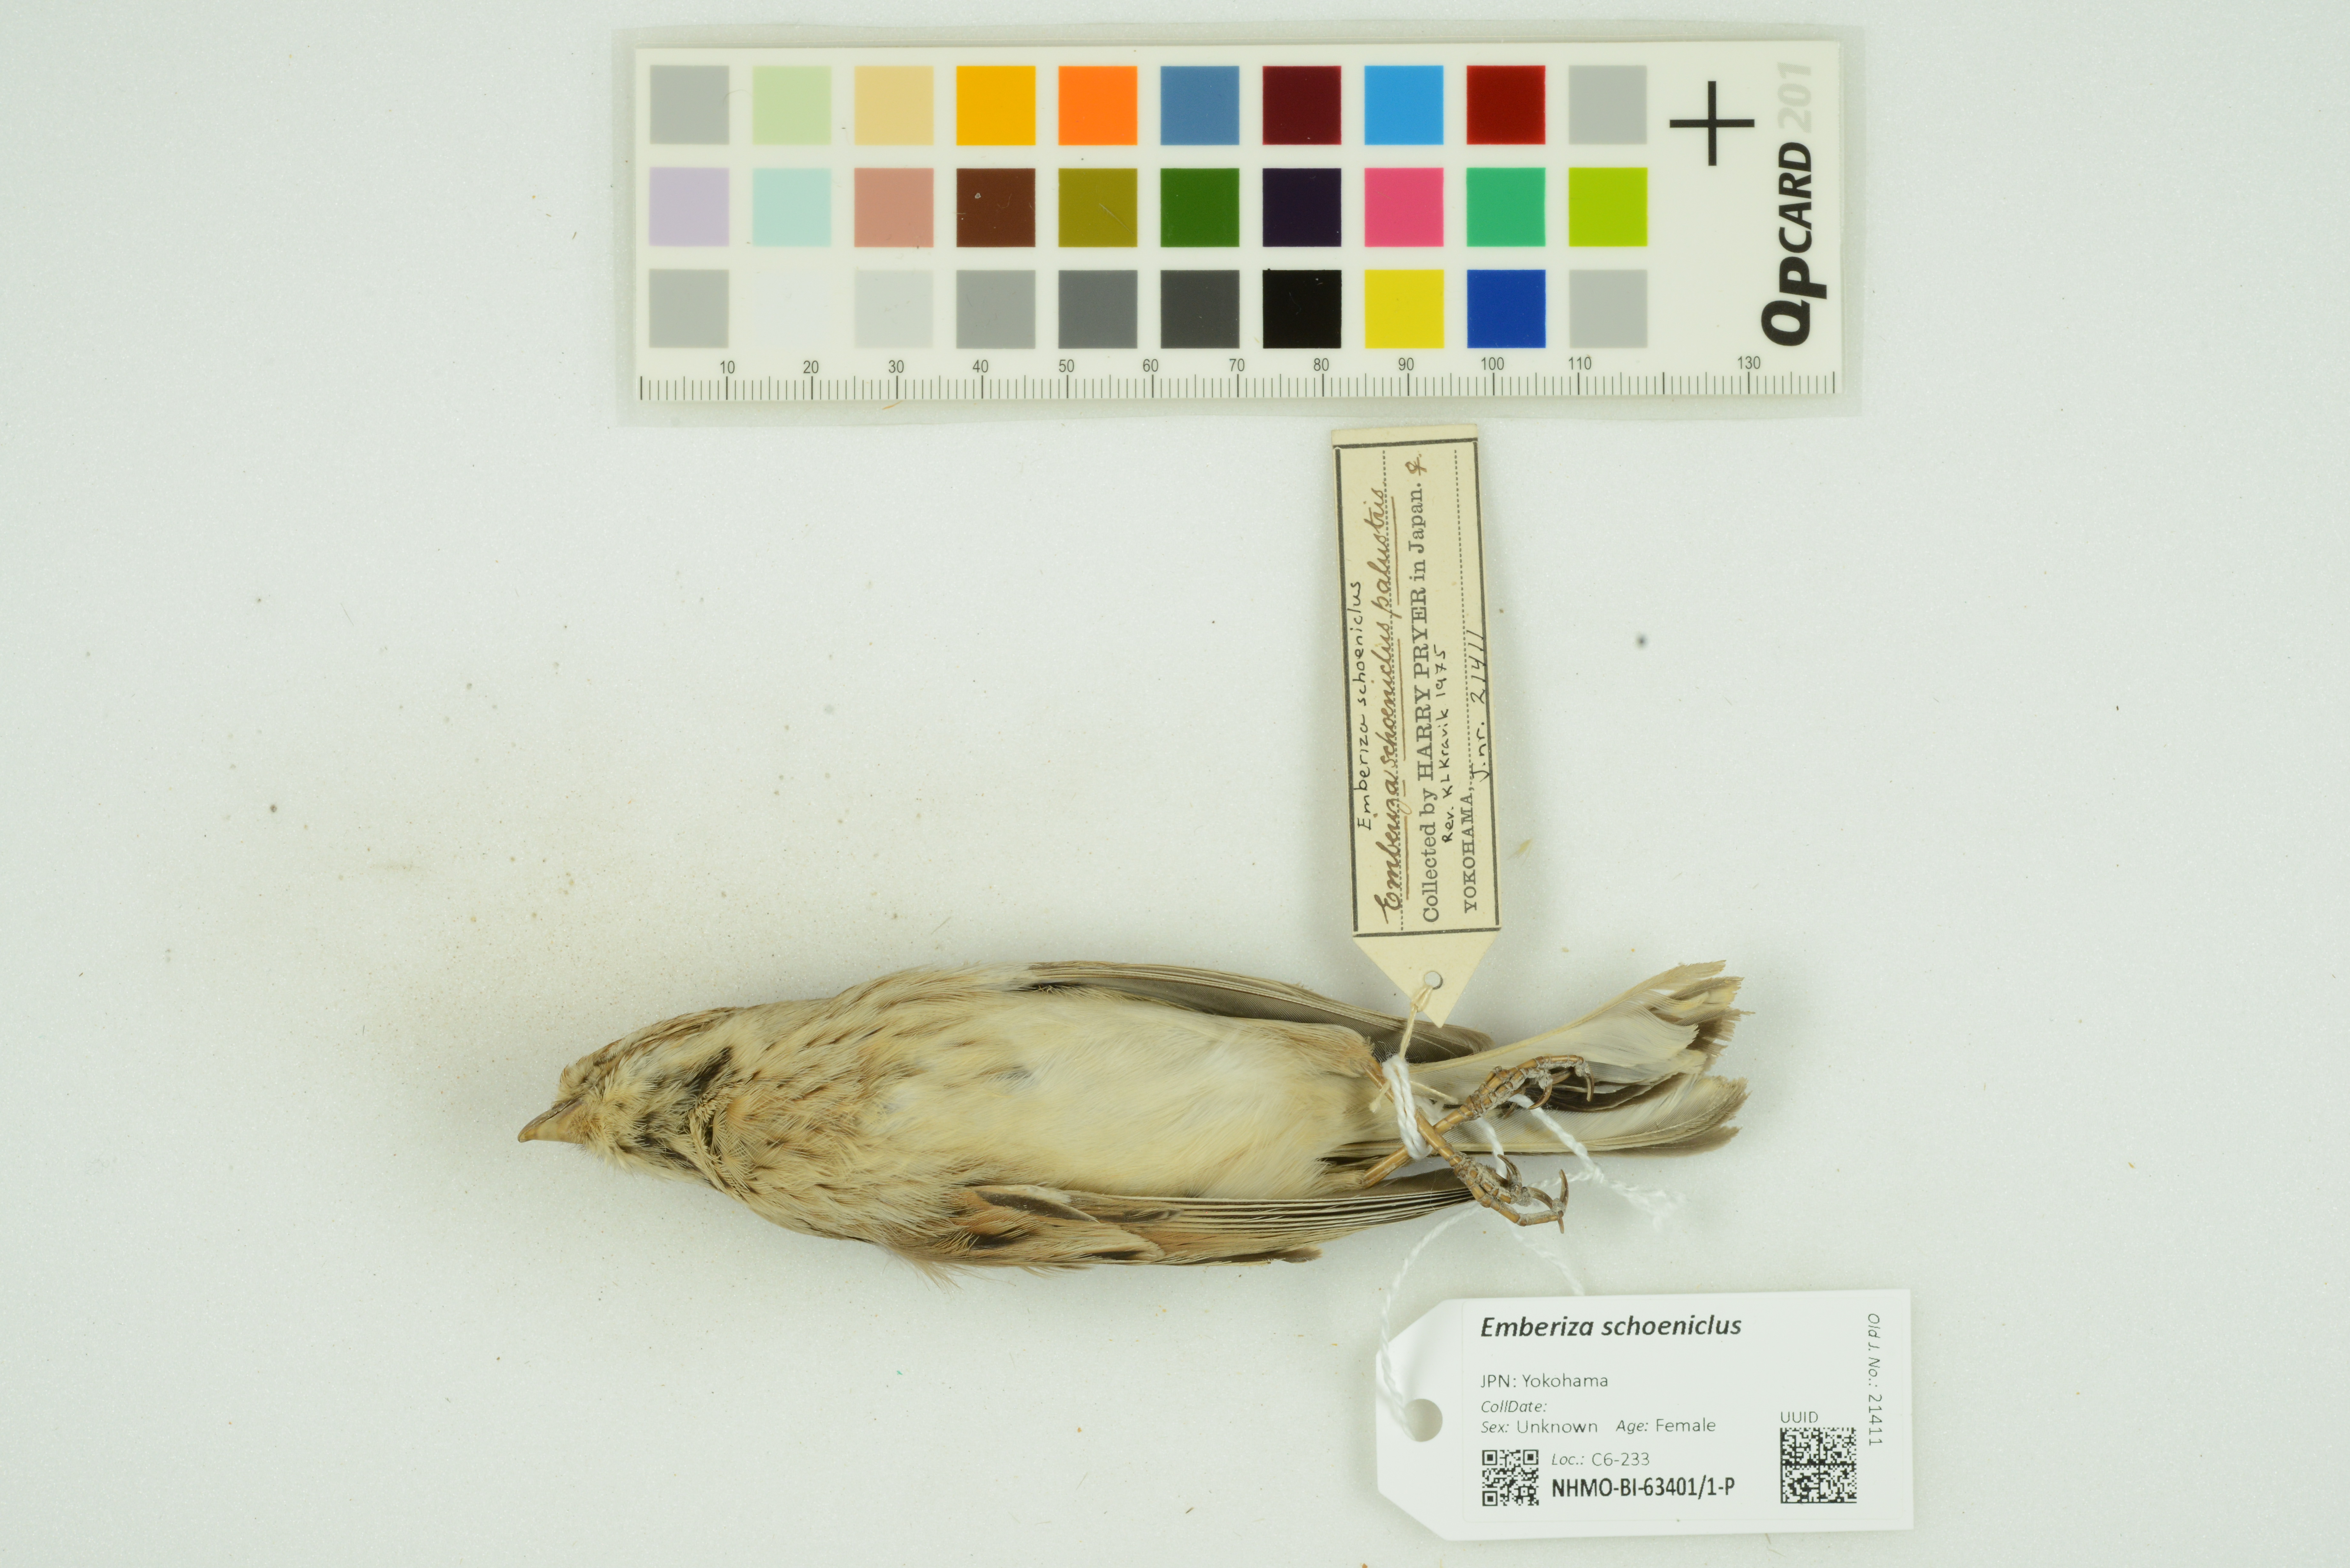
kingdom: Animalia
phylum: Chordata
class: Aves
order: Passeriformes
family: Emberizidae
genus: Emberiza
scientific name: Emberiza schoeniclus
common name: Reed bunting
